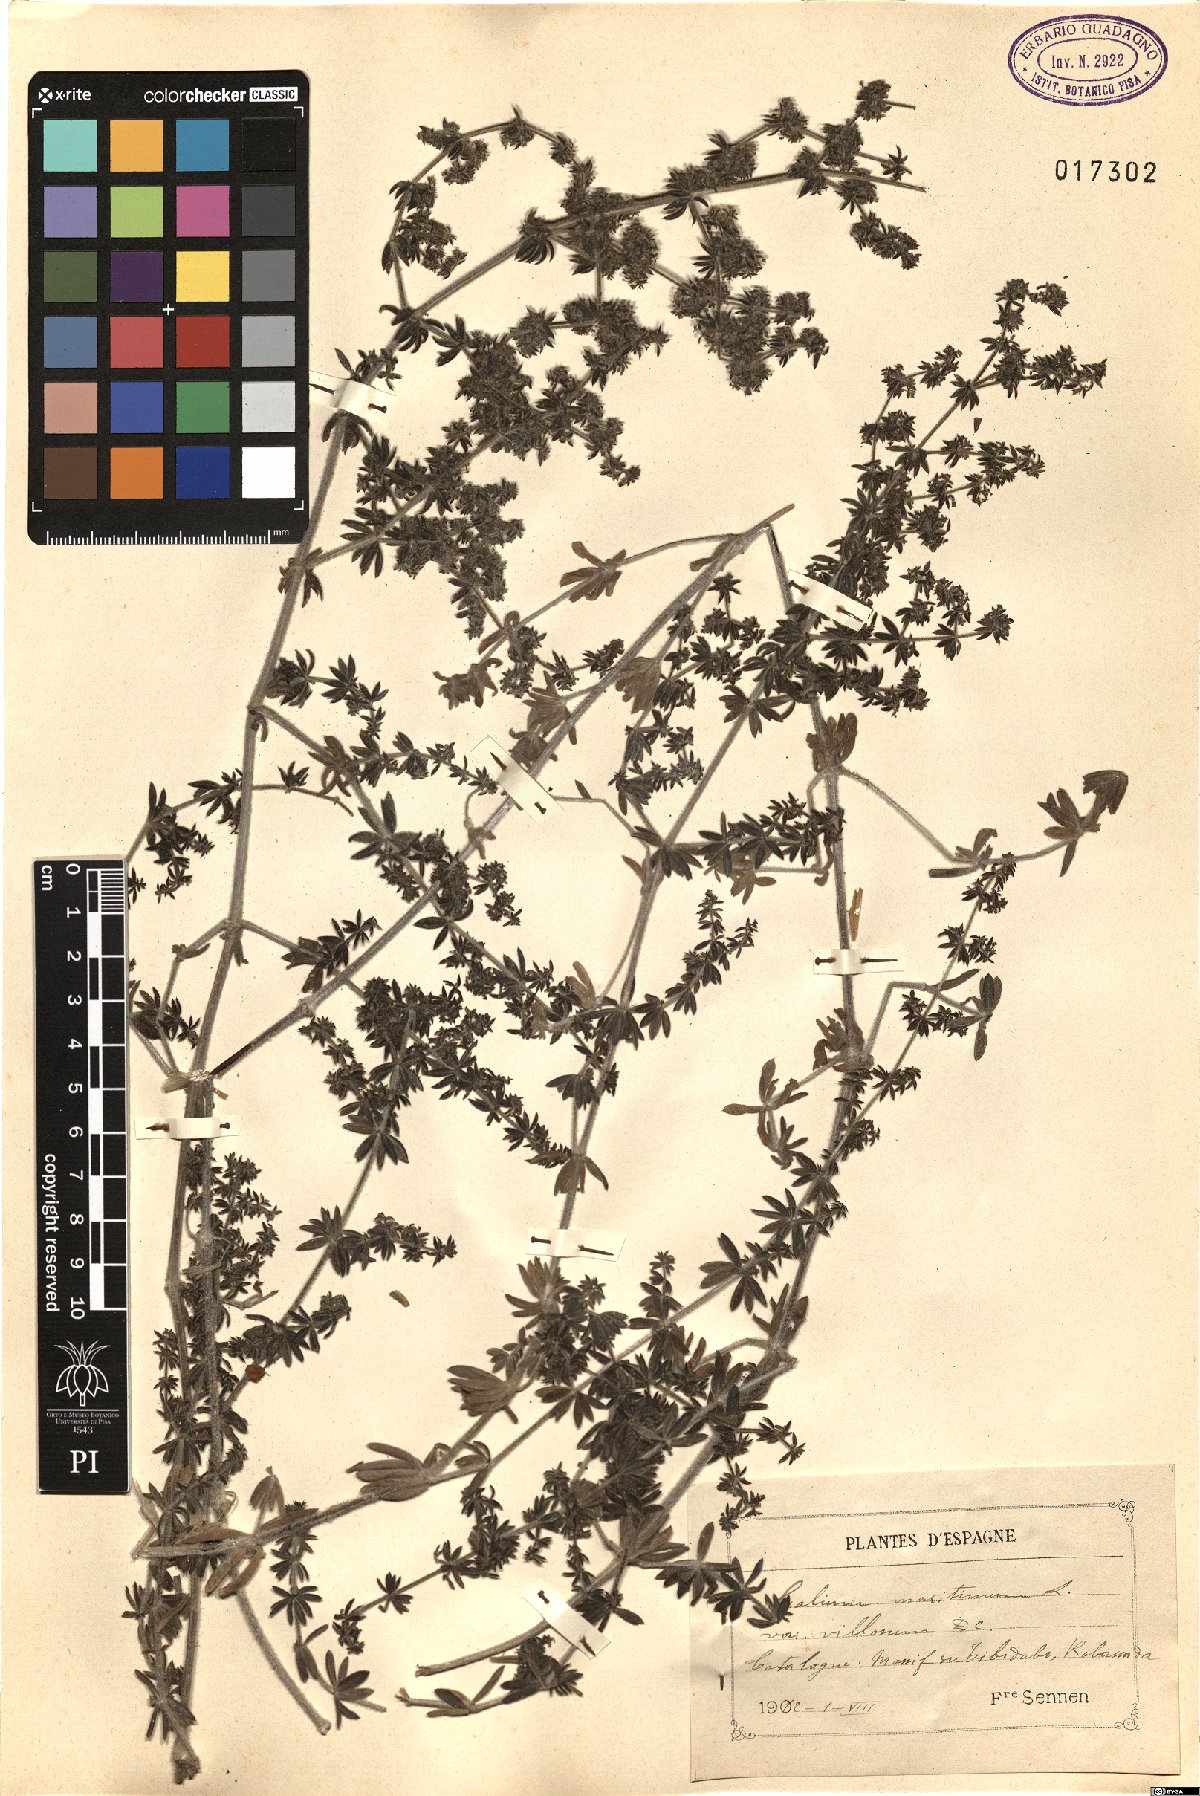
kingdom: Plantae
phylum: Tracheophyta
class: Magnoliopsida
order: Gentianales
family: Rubiaceae
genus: Galium
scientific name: Galium maritimum
